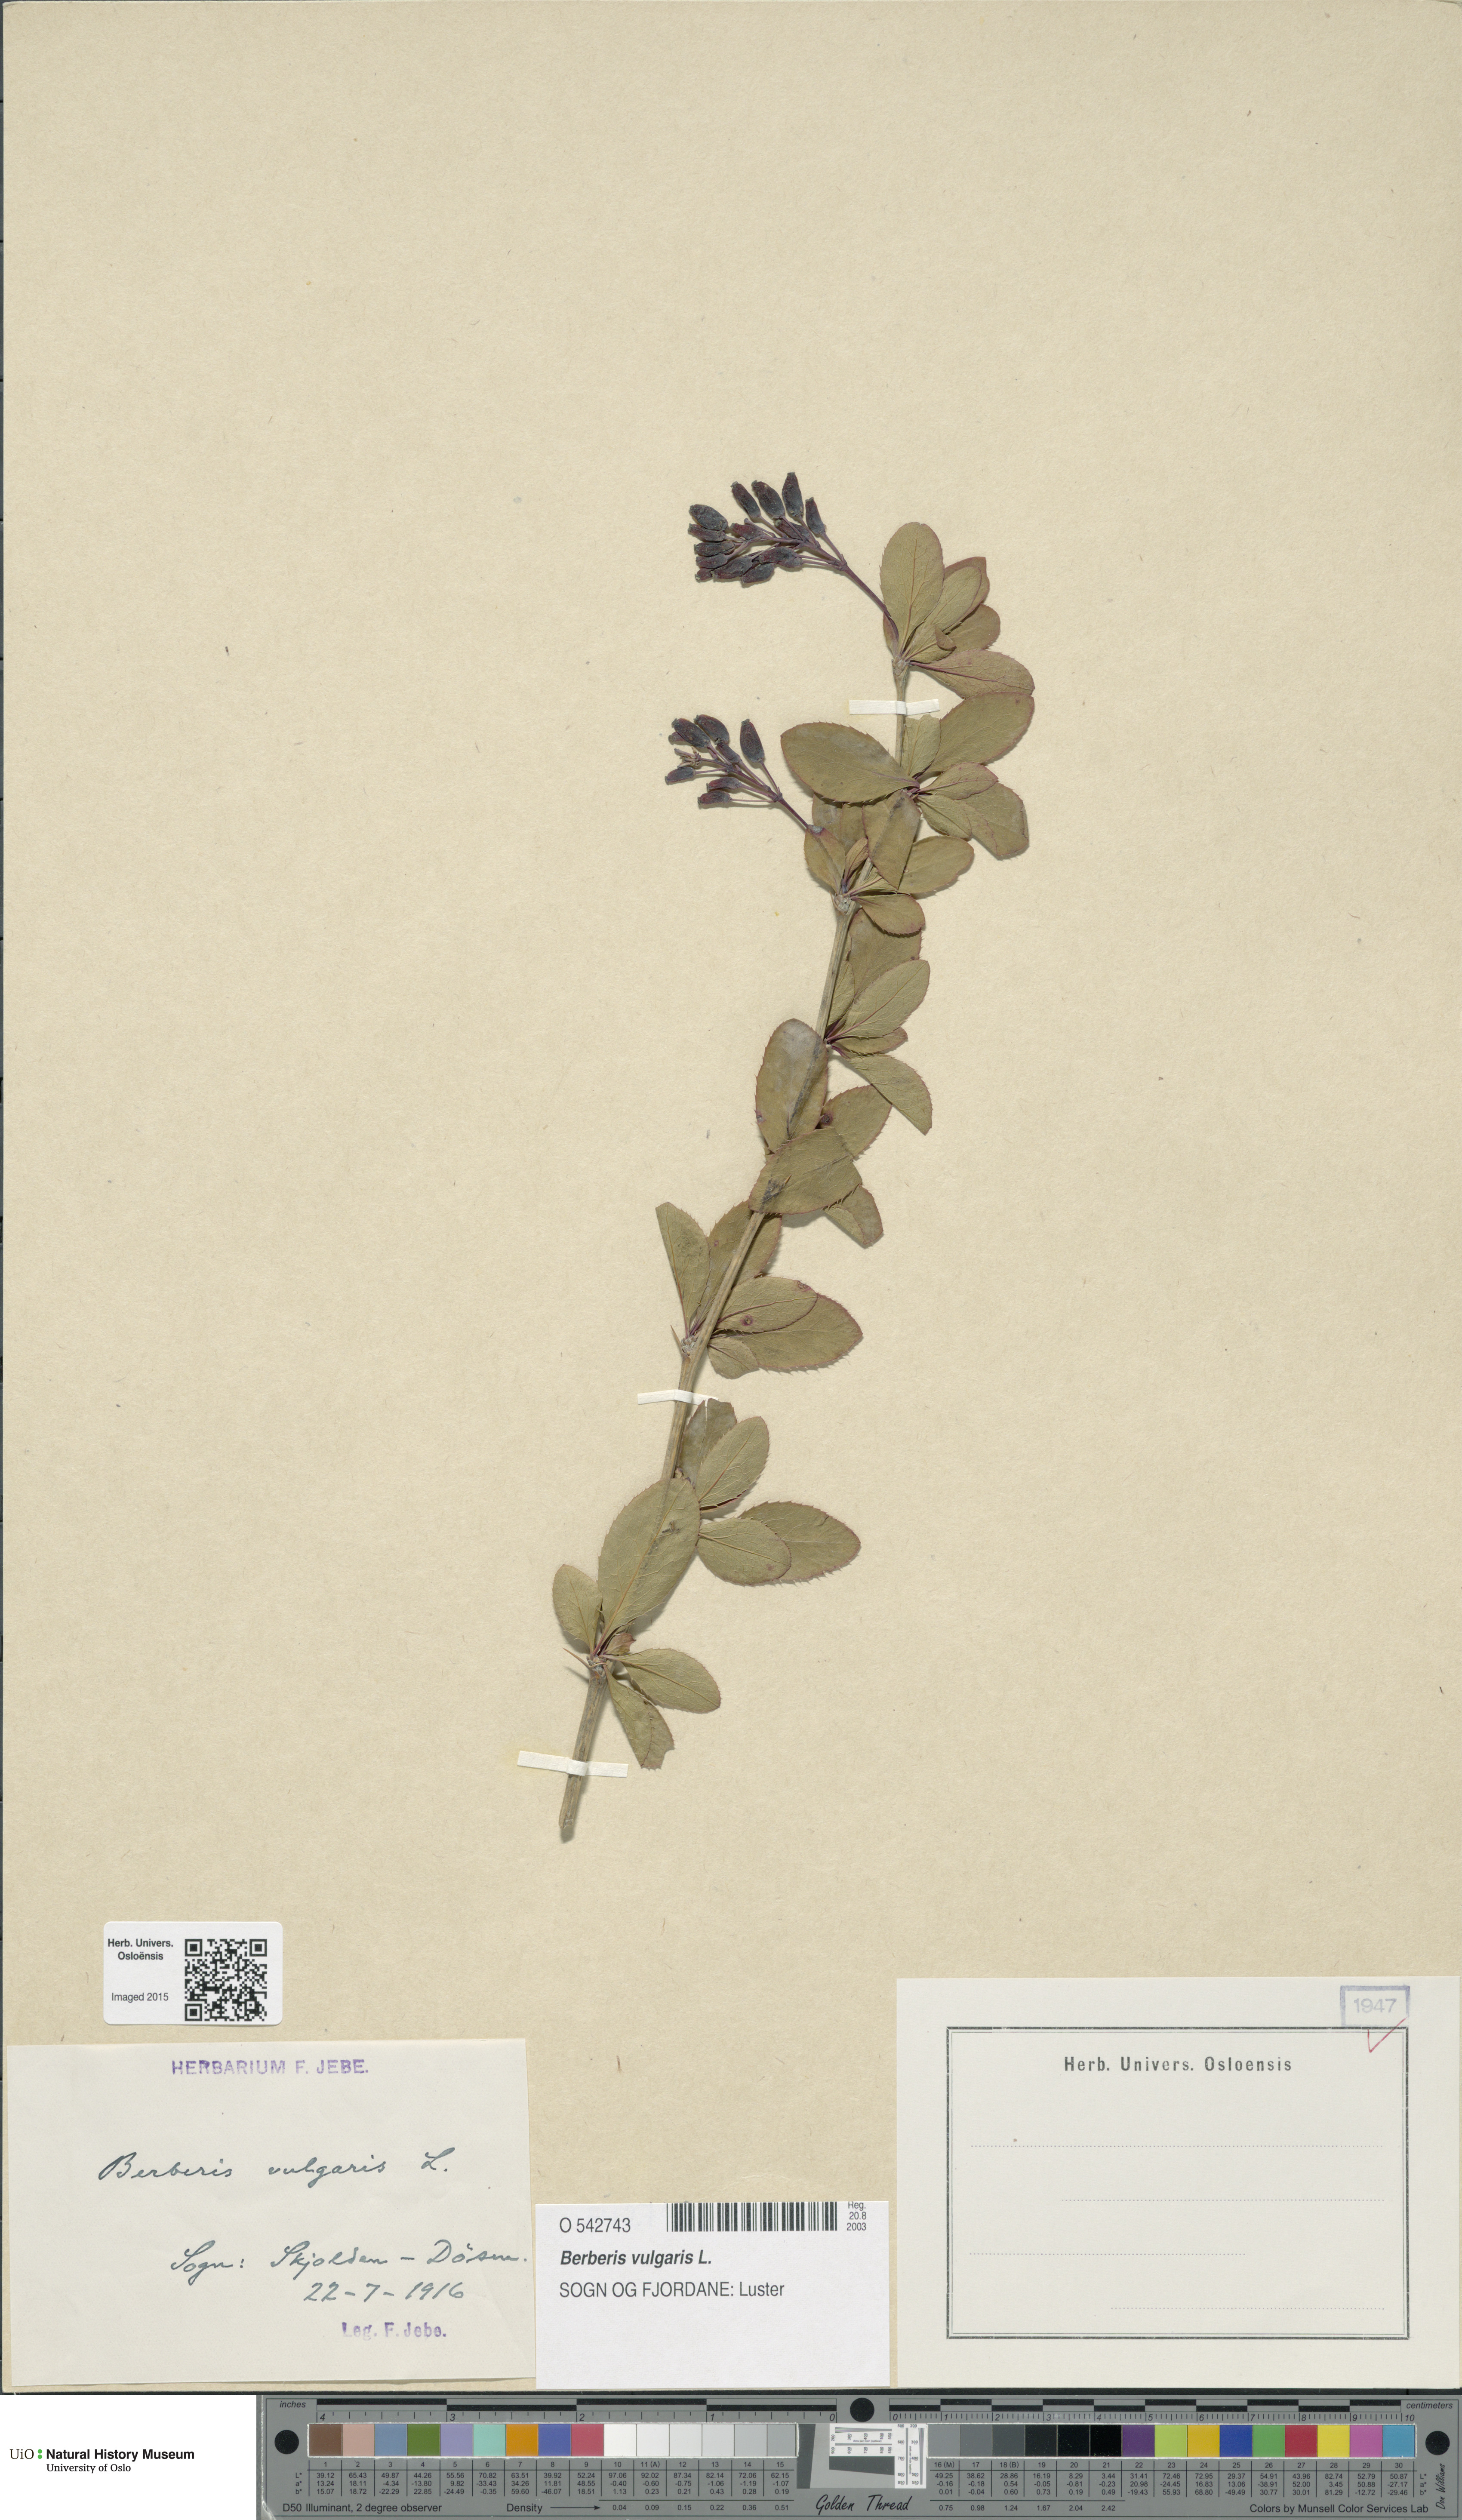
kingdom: Plantae
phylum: Tracheophyta
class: Magnoliopsida
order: Ranunculales
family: Berberidaceae
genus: Berberis
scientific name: Berberis vulgaris
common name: Barberry
